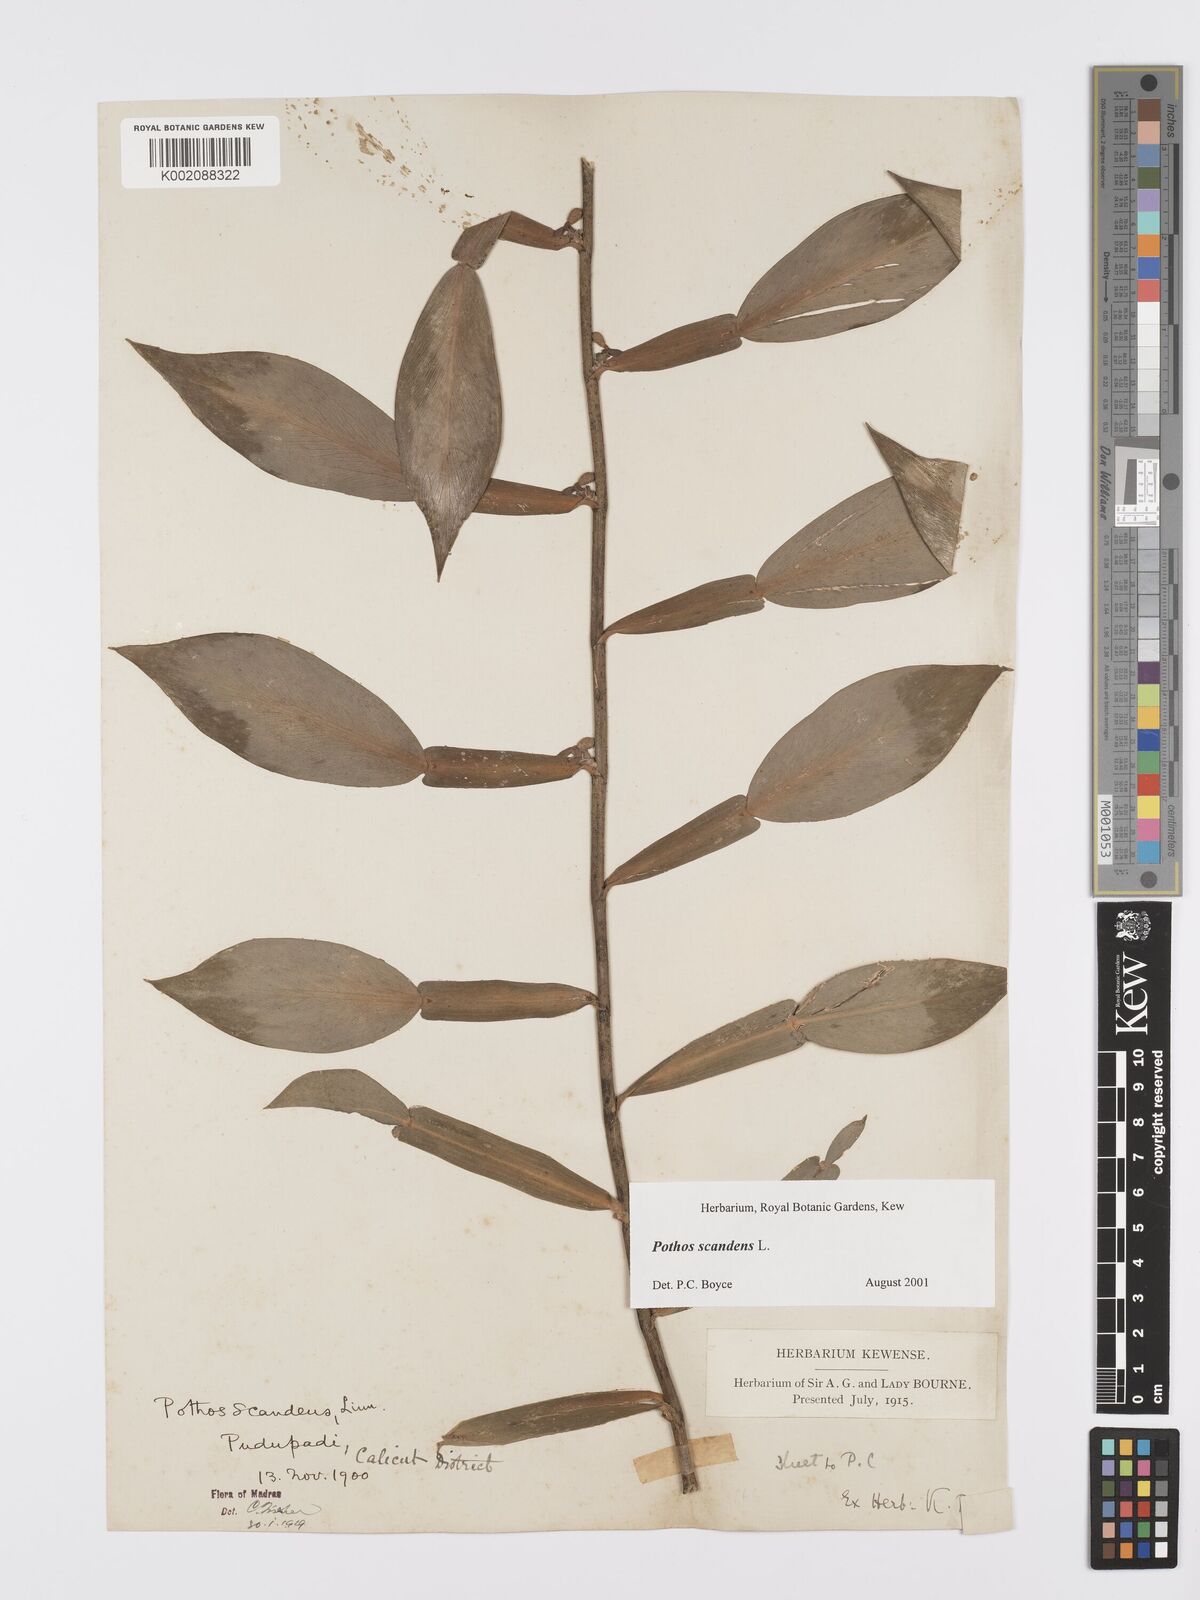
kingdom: Plantae
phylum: Tracheophyta
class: Liliopsida
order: Alismatales
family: Araceae
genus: Pothos
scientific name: Pothos scandens
